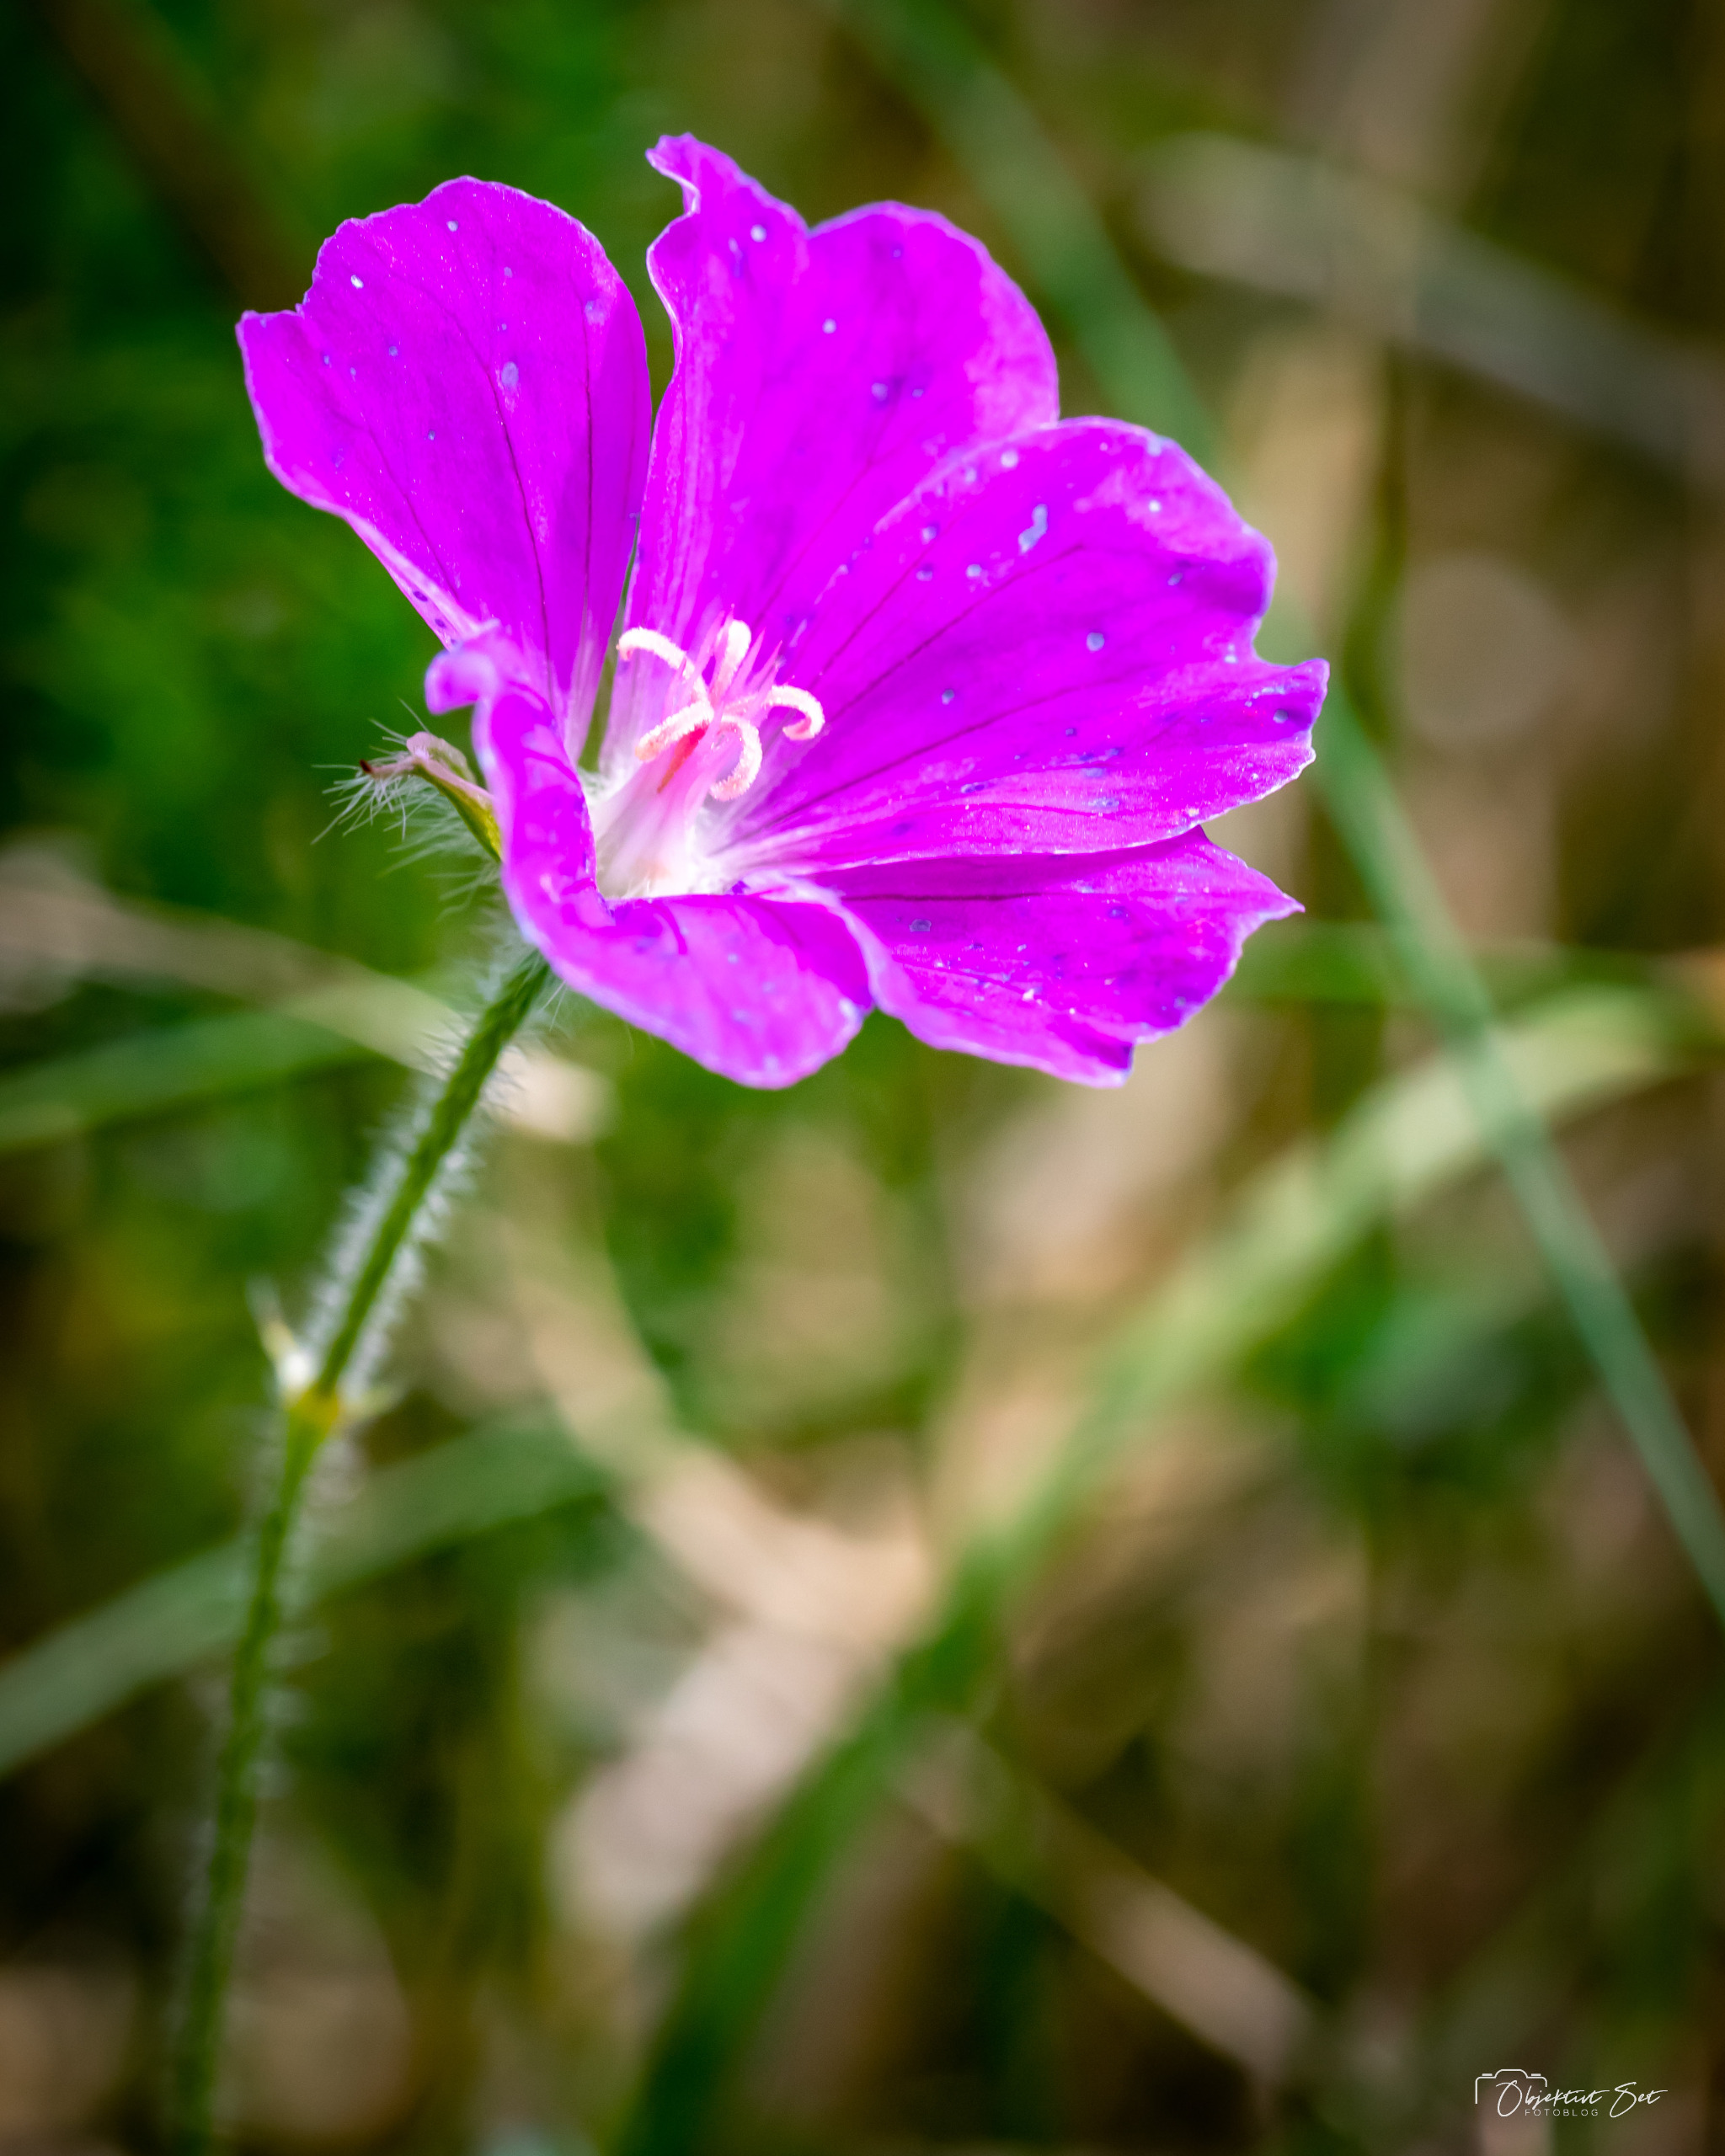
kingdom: Plantae
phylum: Tracheophyta
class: Magnoliopsida
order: Geraniales
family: Geraniaceae
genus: Geranium
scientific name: Geranium sanguineum
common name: Blodrød storkenæb
